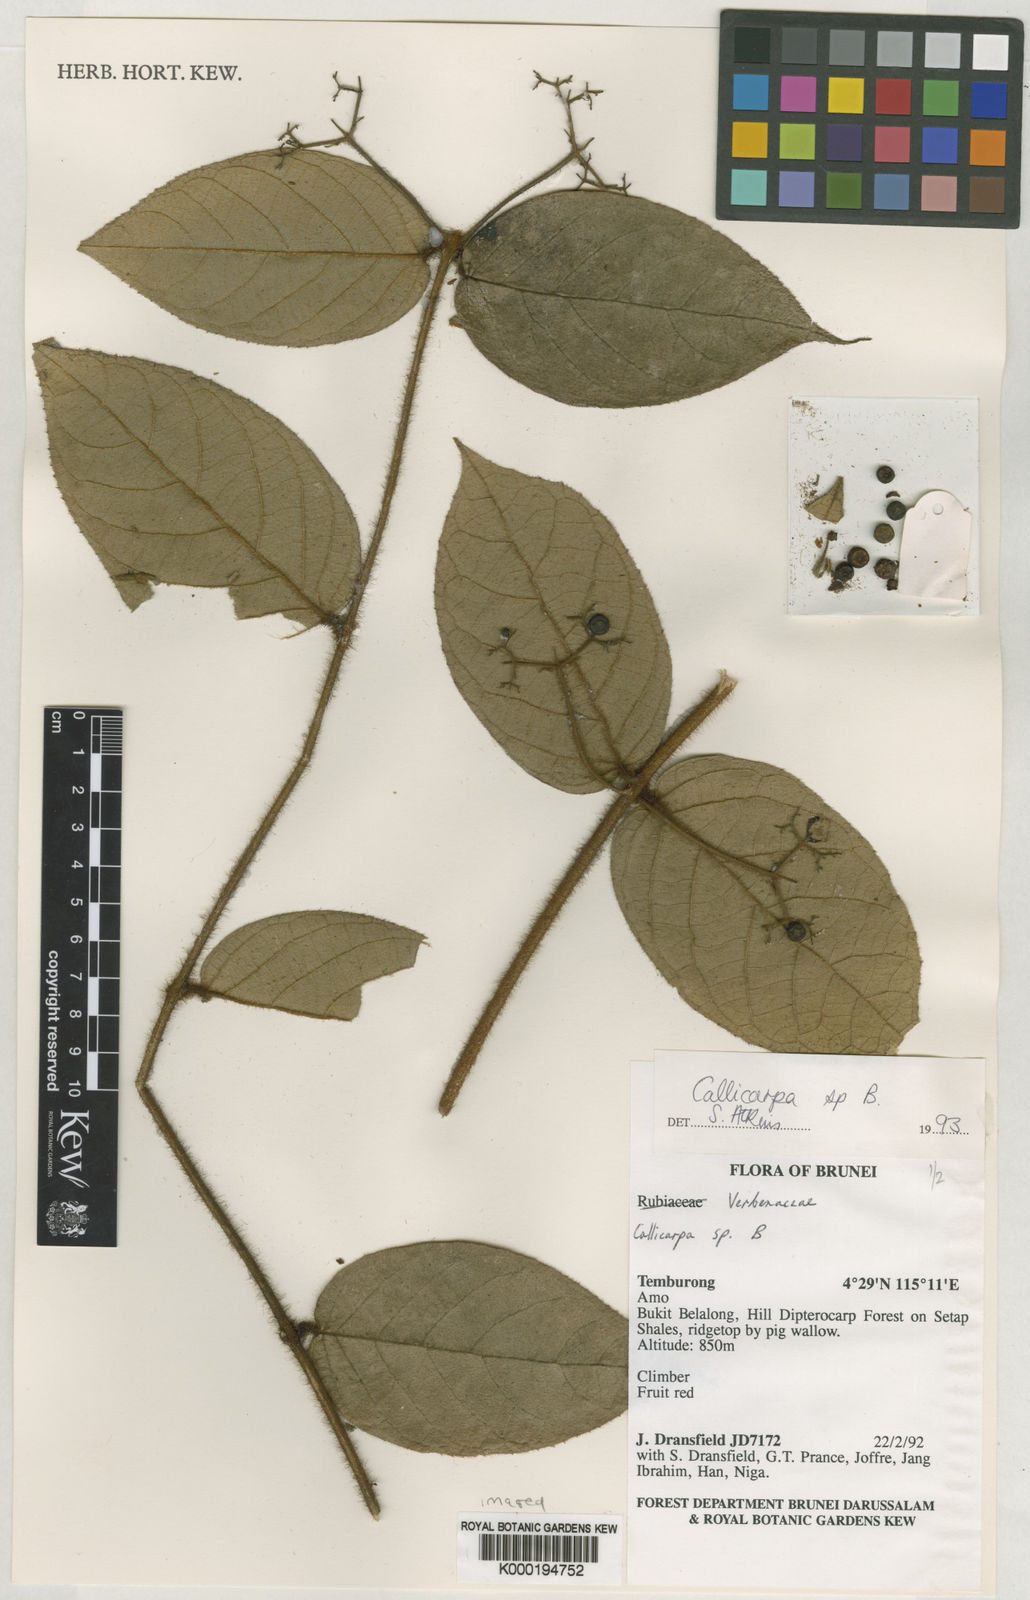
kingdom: Plantae
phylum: Tracheophyta
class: Magnoliopsida
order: Lamiales
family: Lamiaceae
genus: Callicarpa
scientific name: Callicarpa badipilosa
